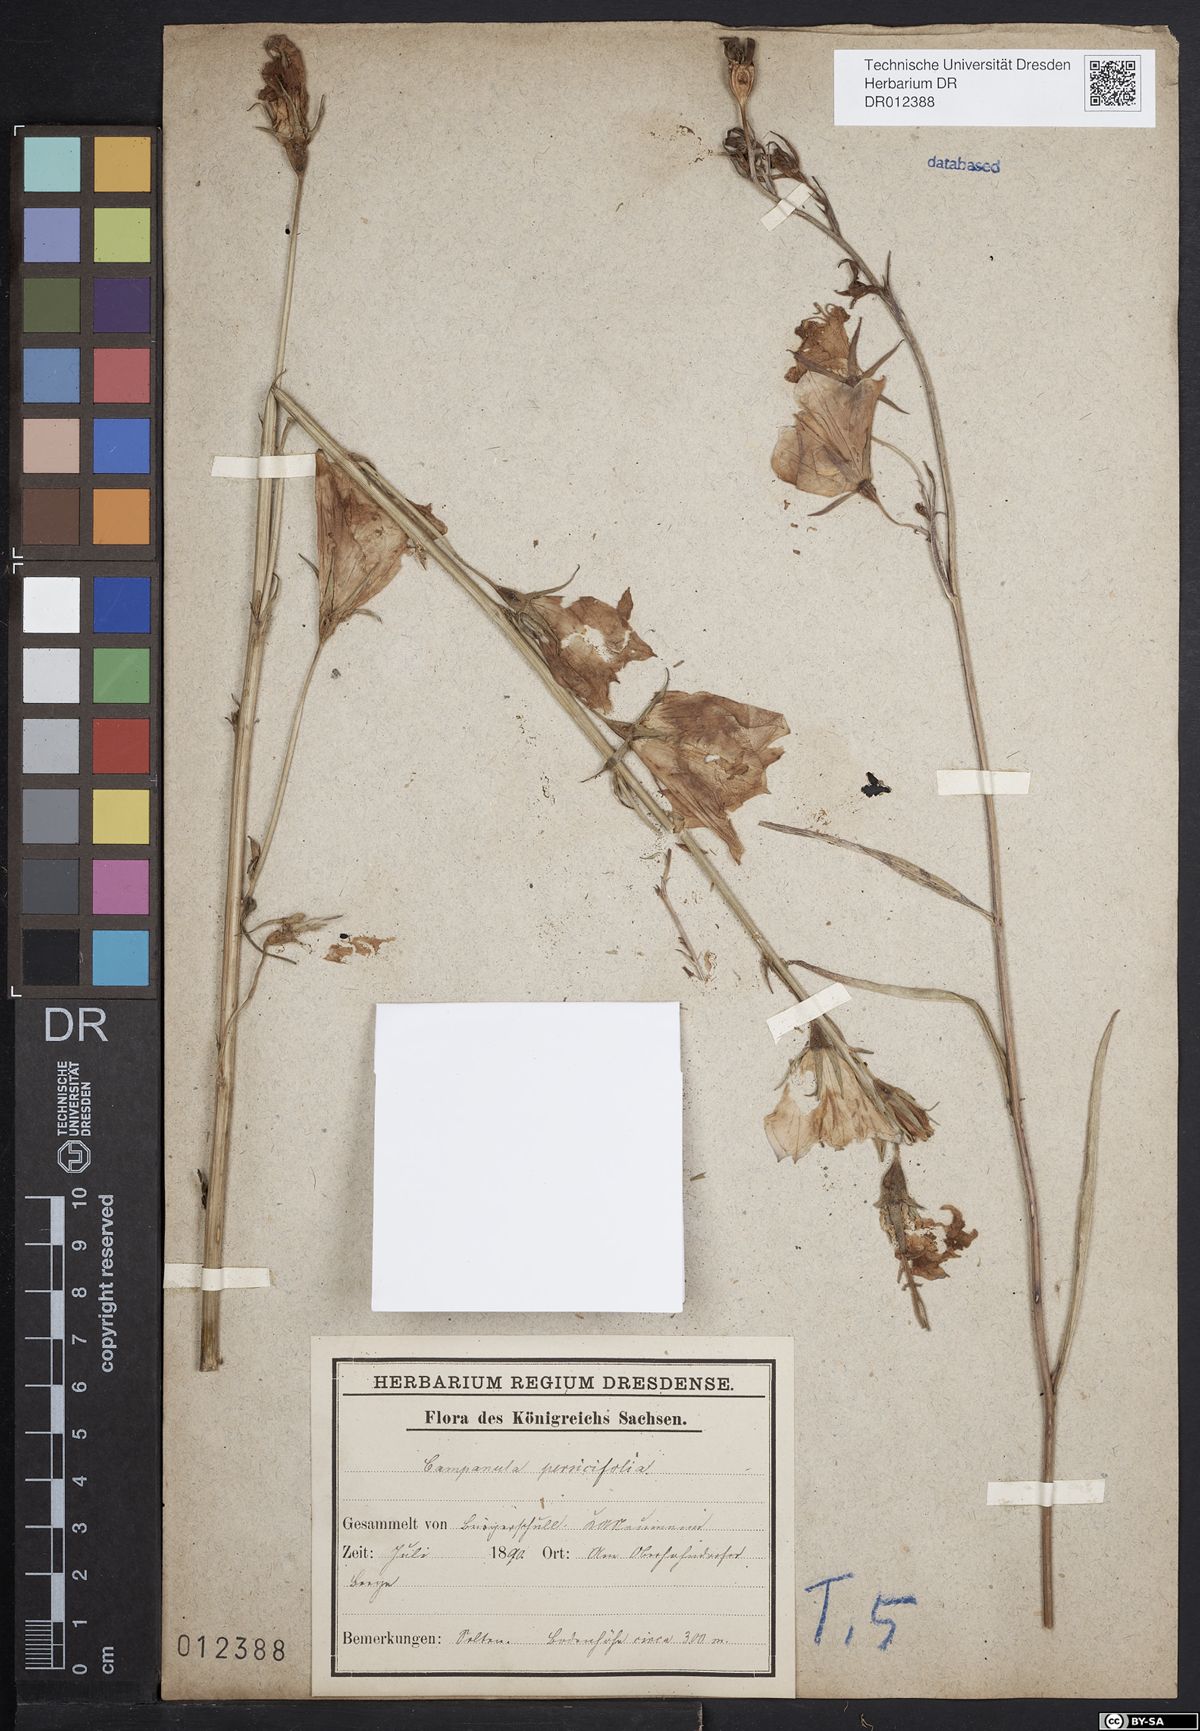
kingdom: Plantae
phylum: Tracheophyta
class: Magnoliopsida
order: Asterales
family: Campanulaceae
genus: Campanula
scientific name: Campanula persicifolia
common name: Peach-leaved bellflower
